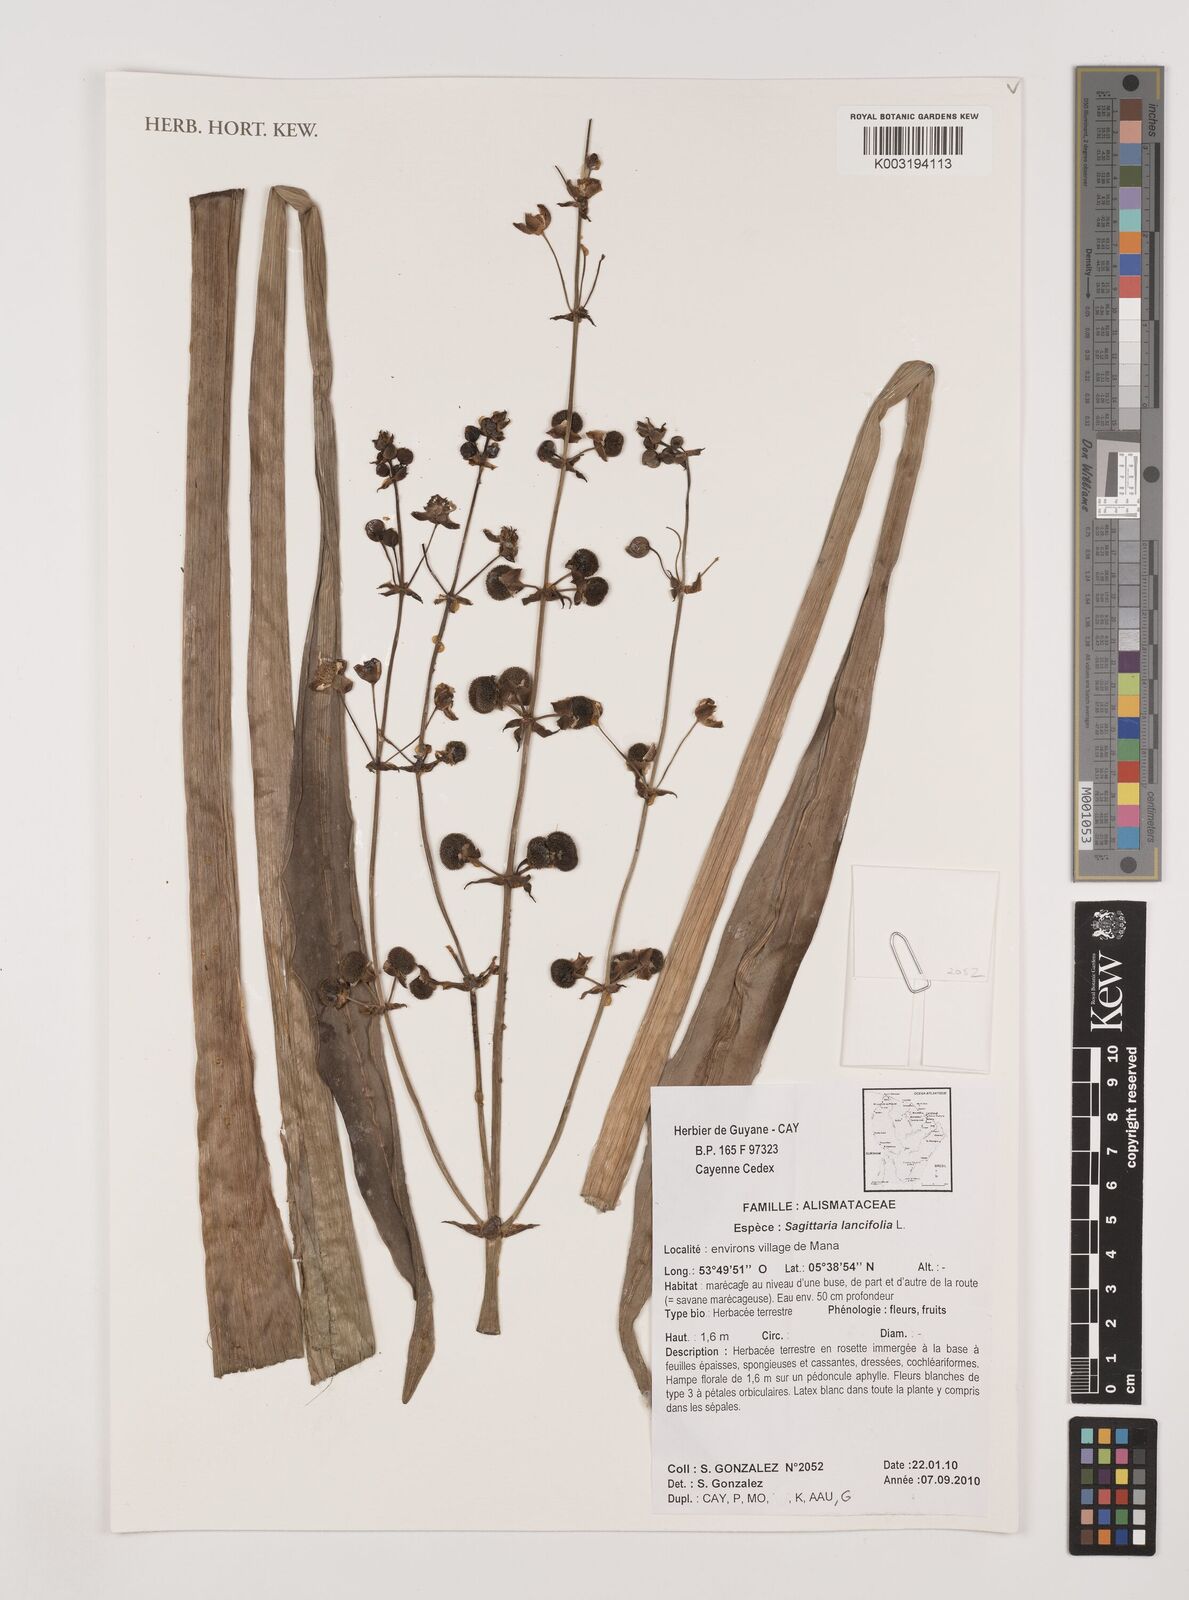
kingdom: Plantae
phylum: Tracheophyta
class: Liliopsida
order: Alismatales
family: Alismataceae
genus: Sagittaria
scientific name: Sagittaria lancifolia
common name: Lance-leaf arrowhead
